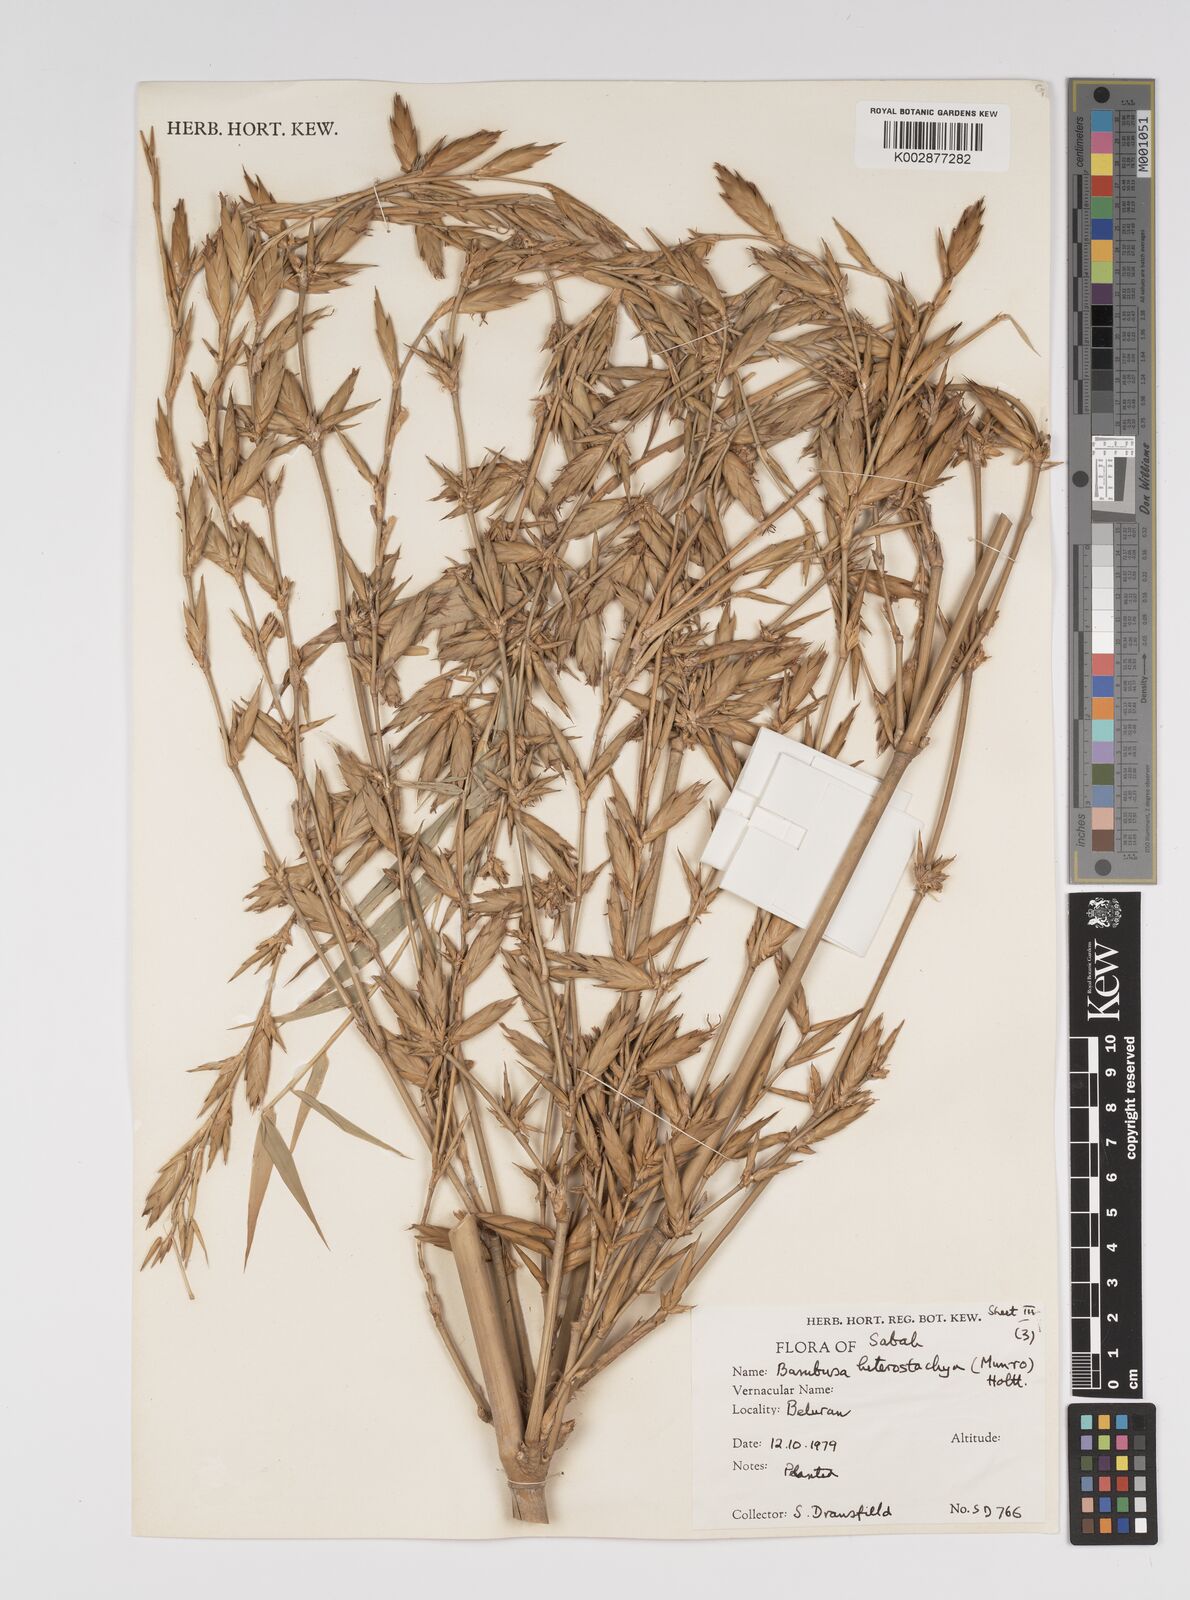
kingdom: Plantae
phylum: Tracheophyta
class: Liliopsida
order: Poales
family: Poaceae
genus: Bambusa
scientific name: Bambusa heterostachya
